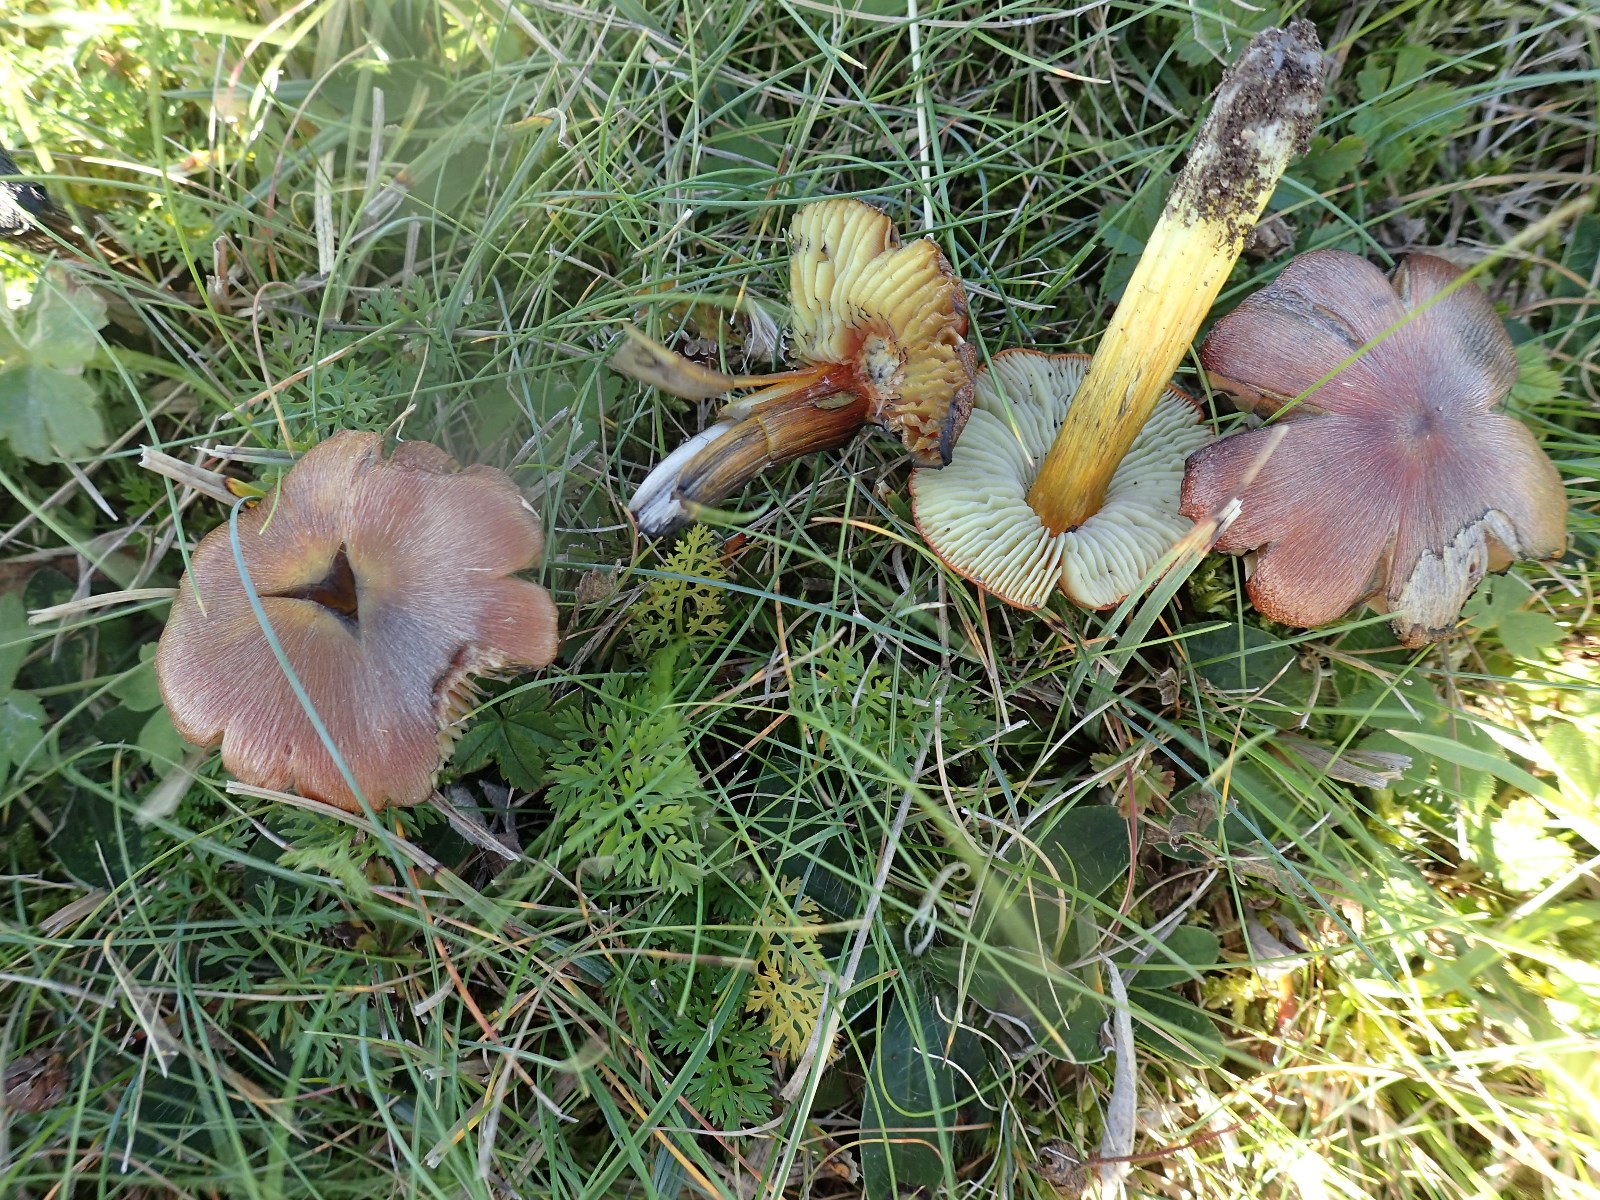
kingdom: Fungi
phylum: Basidiomycota
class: Agaricomycetes
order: Agaricales
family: Hygrophoraceae
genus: Hygrocybe
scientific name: Hygrocybe conica
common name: kegle-vokshat
